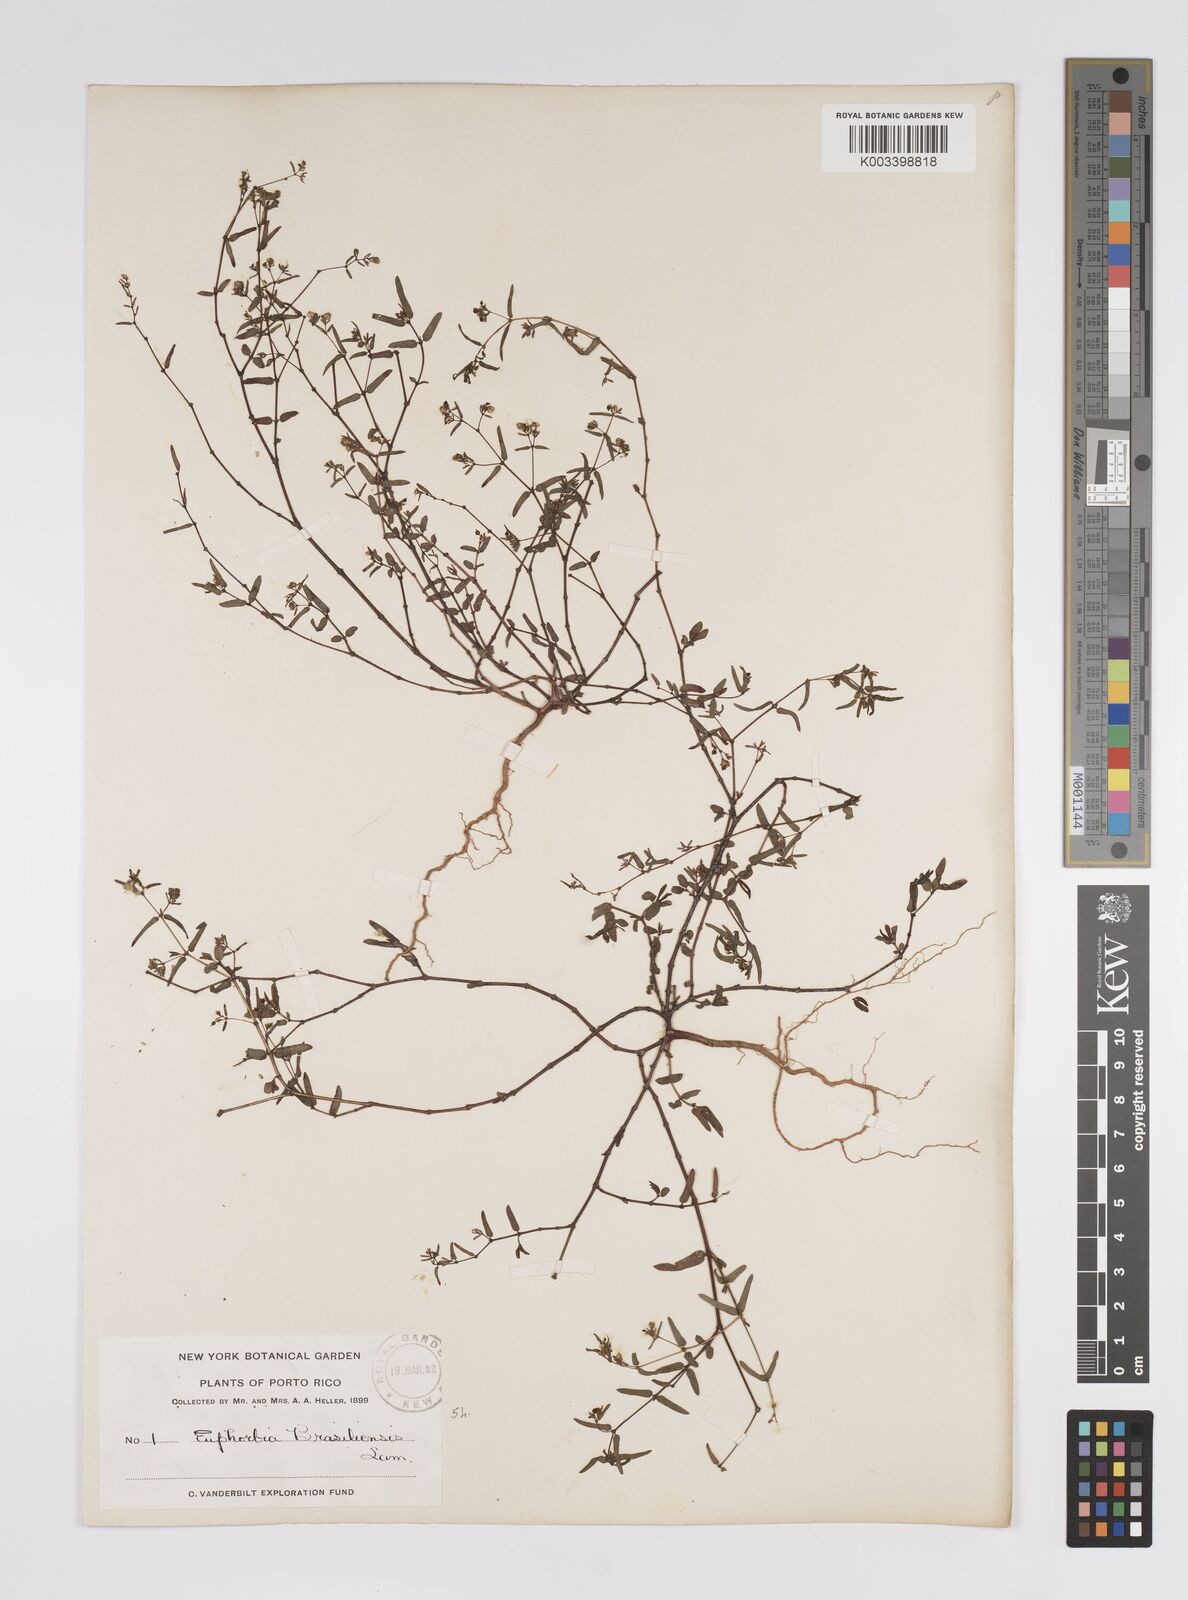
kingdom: Plantae
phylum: Tracheophyta
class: Magnoliopsida
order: Malpighiales
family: Euphorbiaceae
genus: Euphorbia
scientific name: Euphorbia hyssopifolia
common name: Hyssopleaf sandmat
